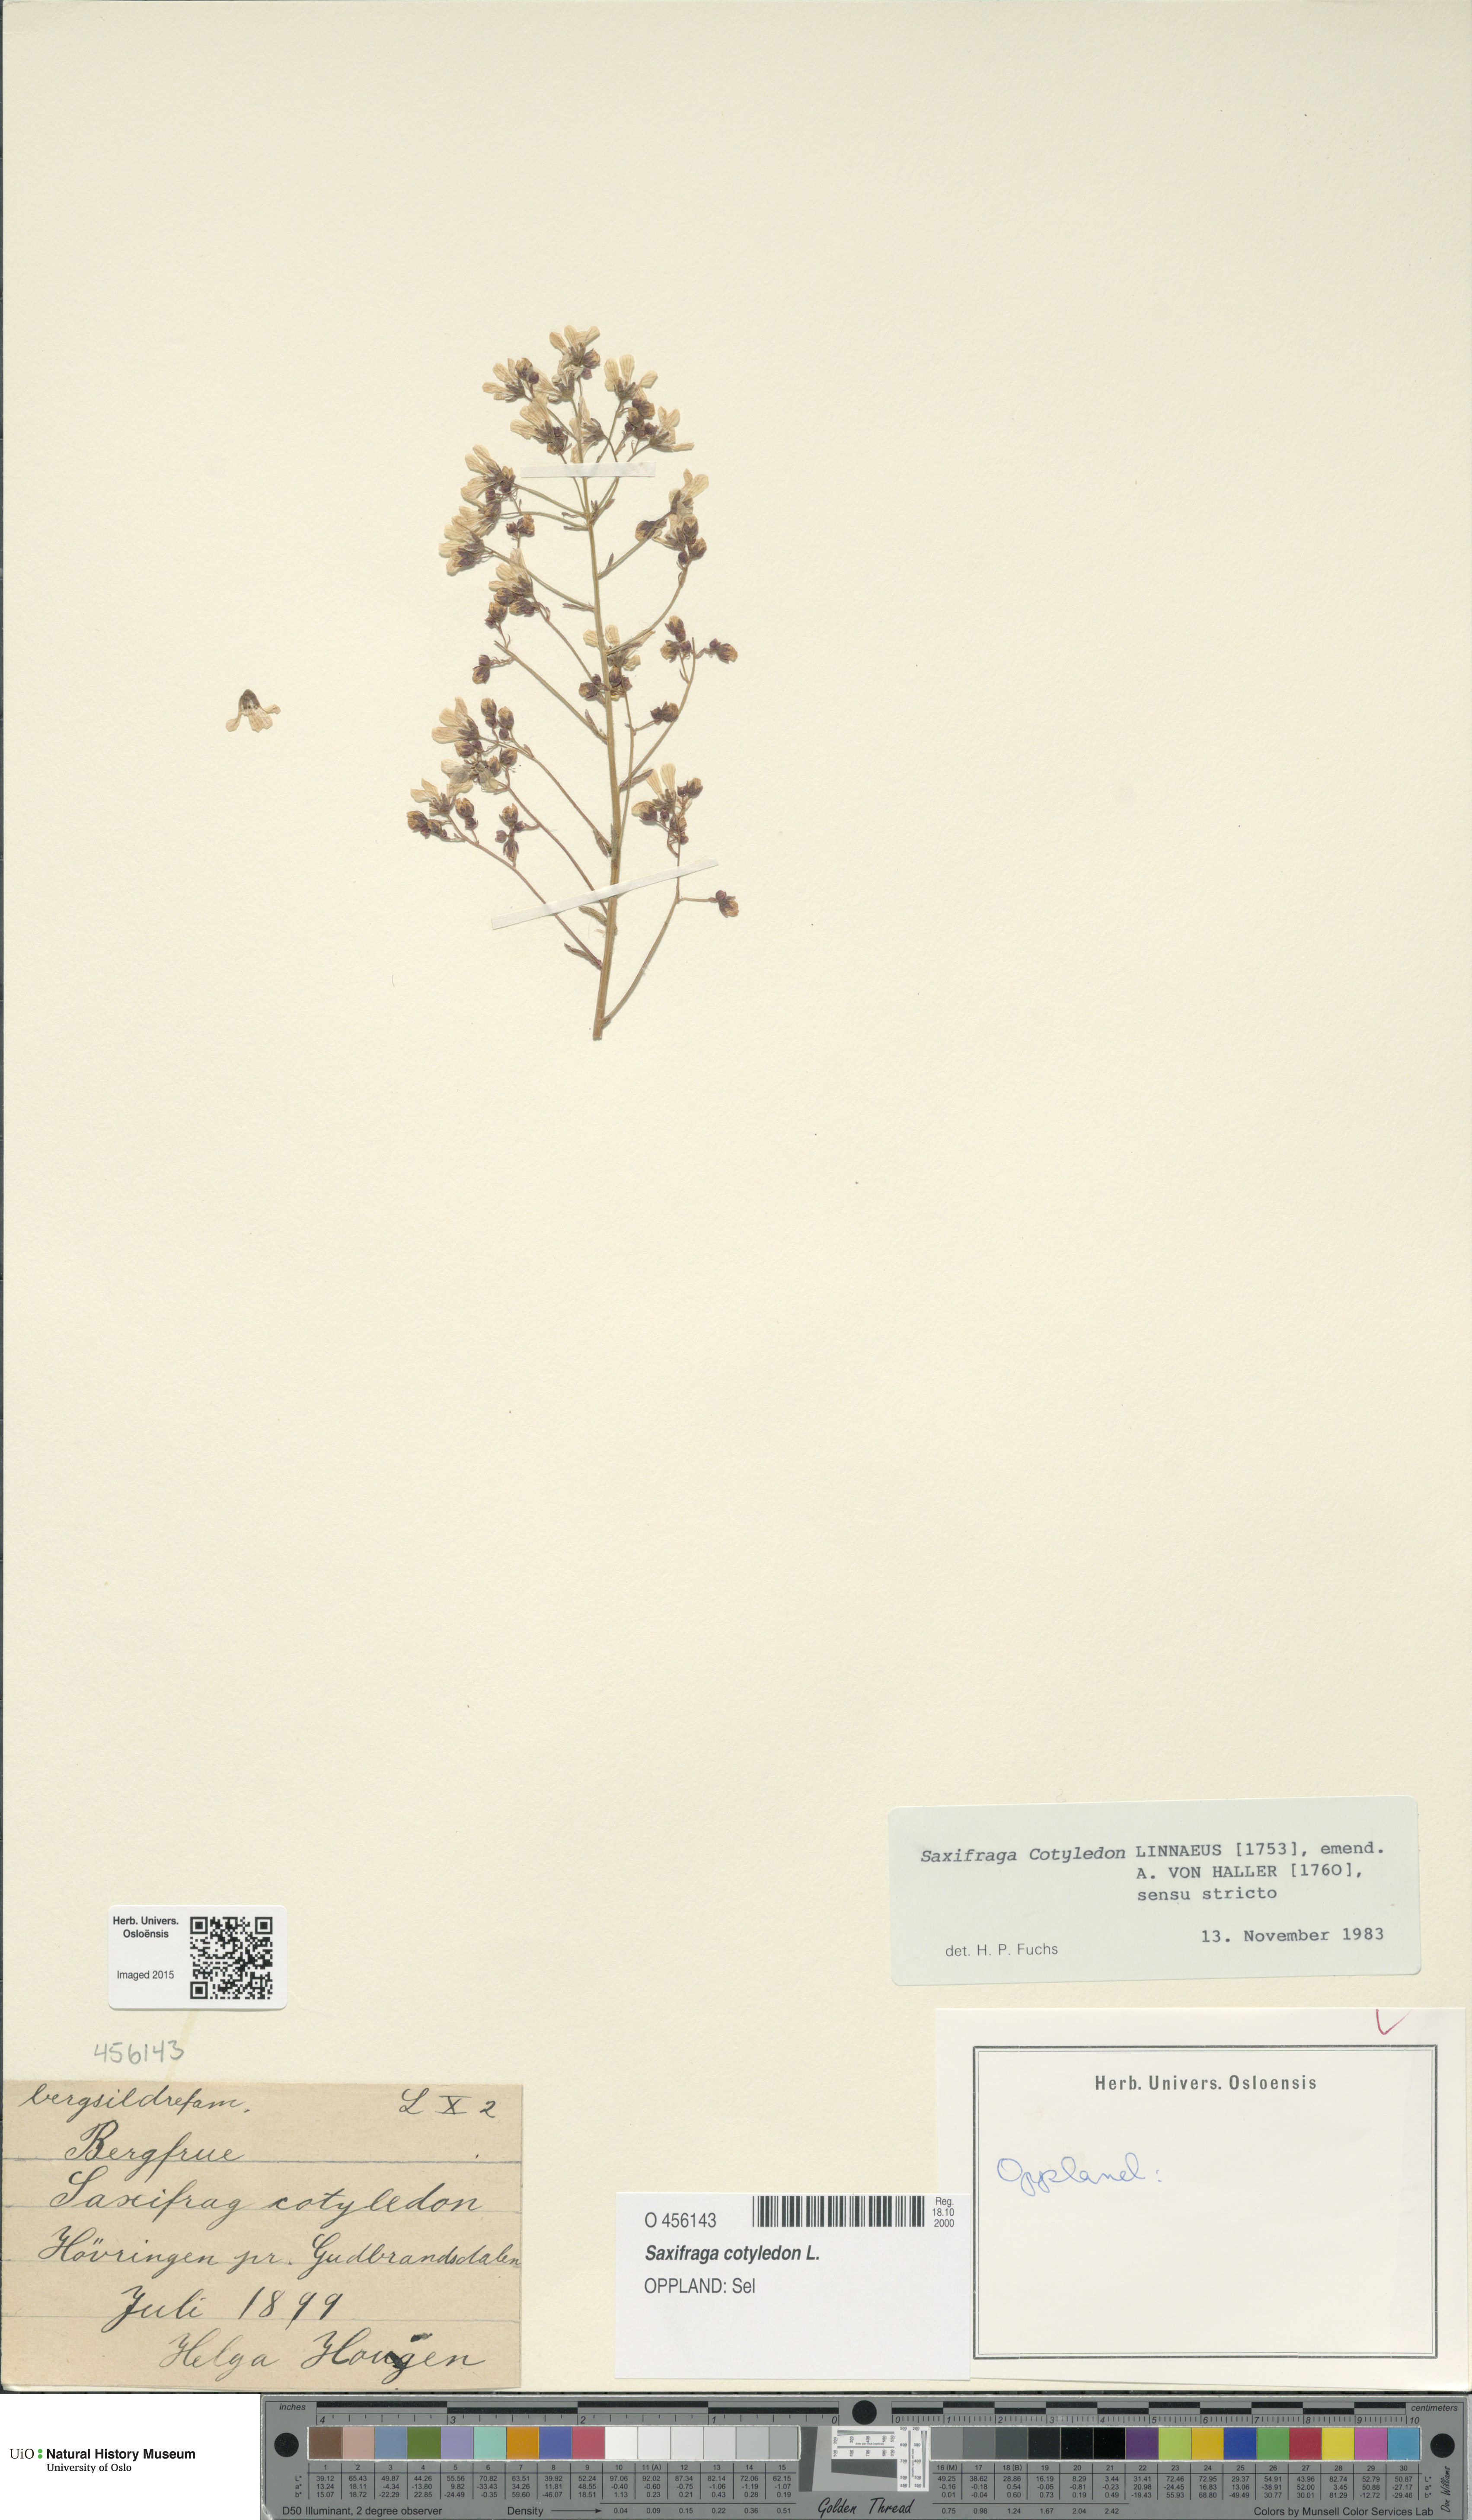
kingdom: Plantae
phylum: Tracheophyta
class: Magnoliopsida
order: Saxifragales
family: Saxifragaceae
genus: Saxifraga
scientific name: Saxifraga cotyledon
